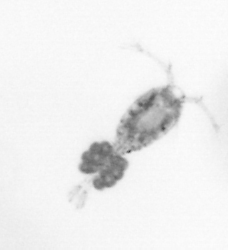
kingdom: Animalia
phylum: Arthropoda
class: Copepoda
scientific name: Copepoda
